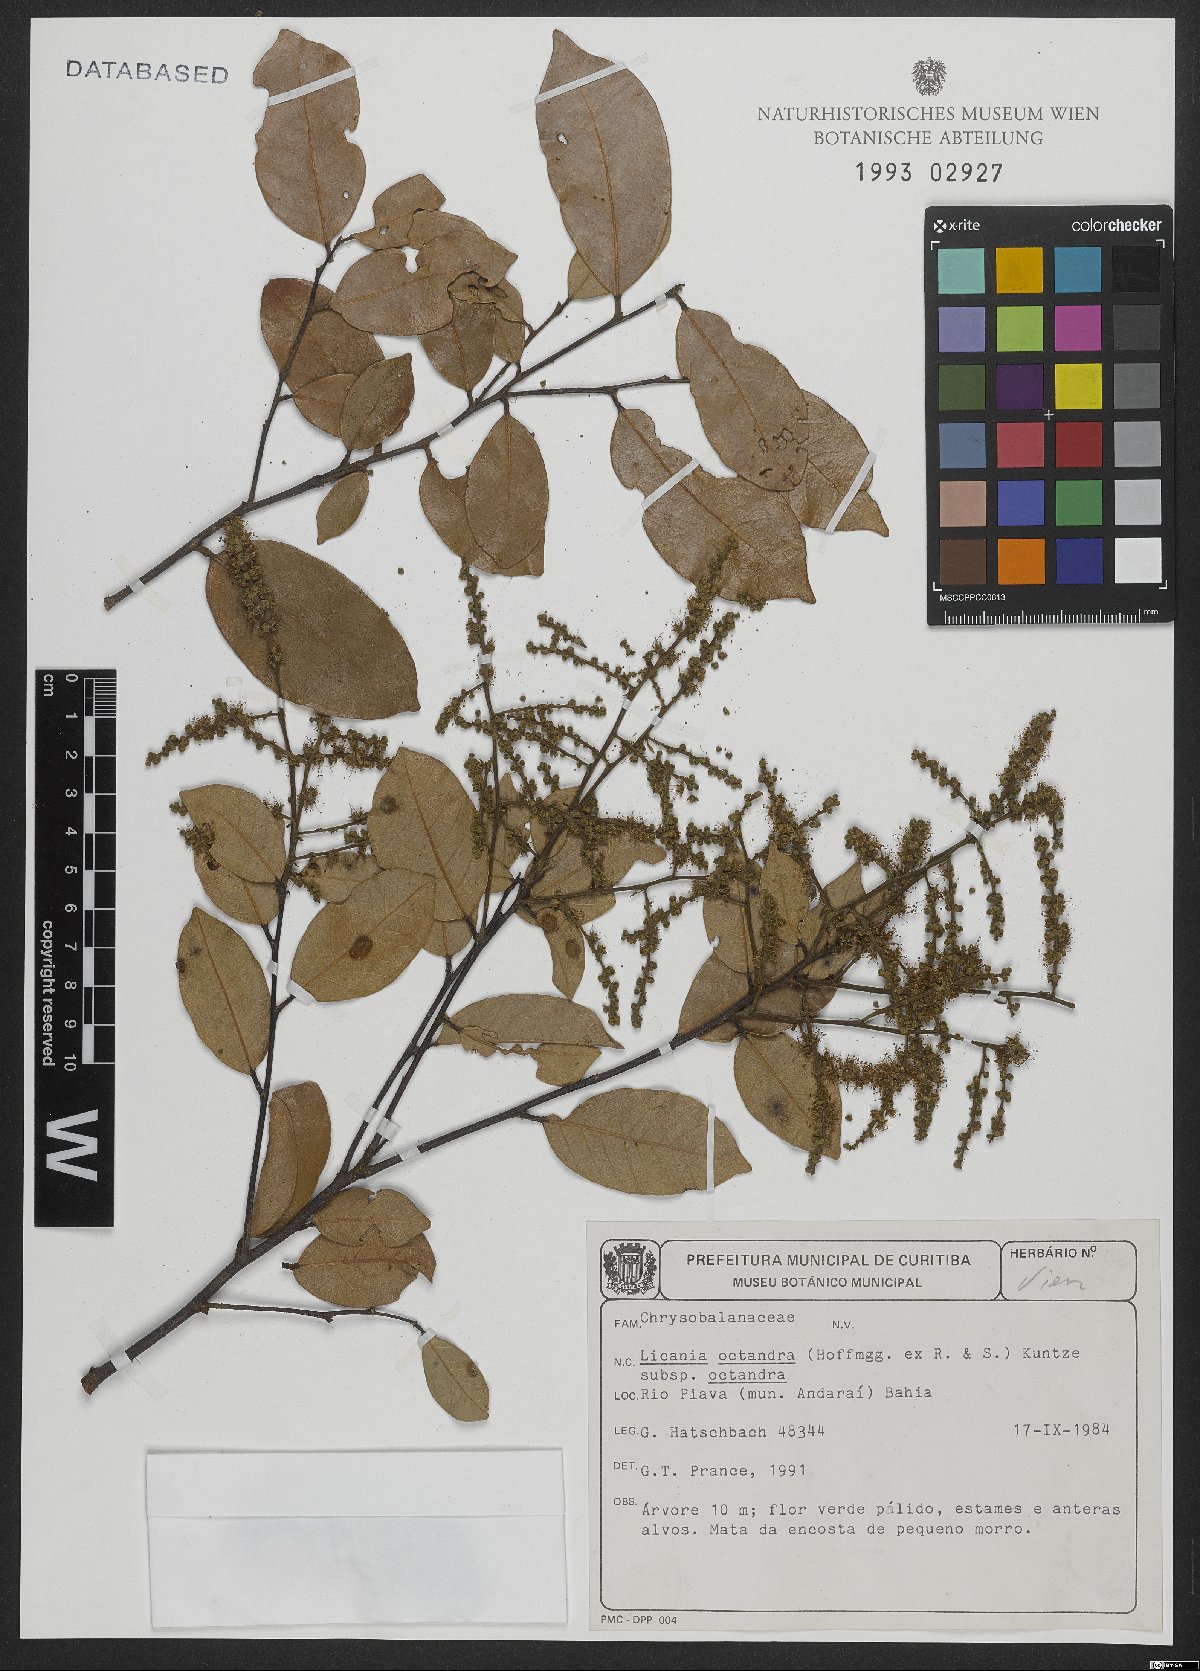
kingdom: Plantae
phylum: Tracheophyta
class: Magnoliopsida
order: Malpighiales
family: Chrysobalanaceae
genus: Leptobalanus
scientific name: Leptobalanus octandrus
